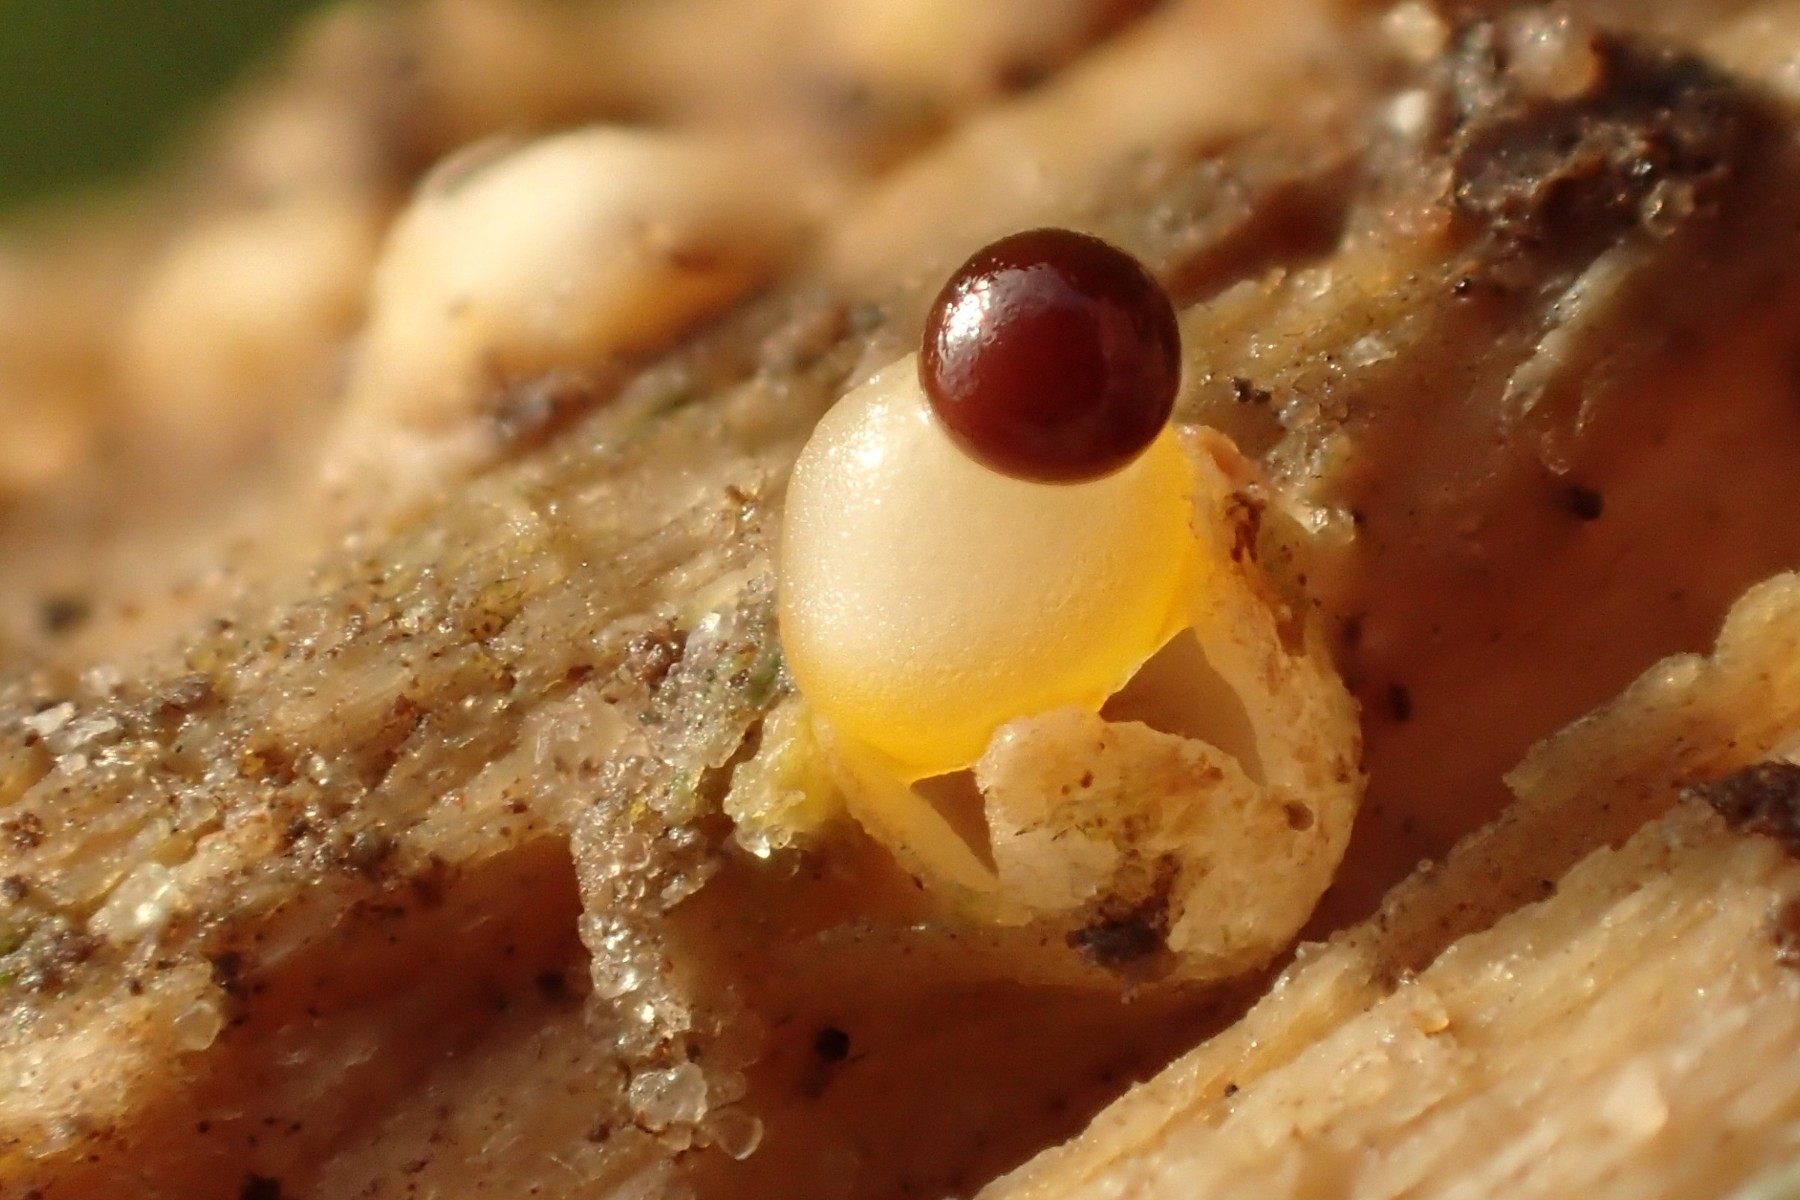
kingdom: Fungi
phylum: Basidiomycota
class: Agaricomycetes
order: Geastrales
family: Geastraceae
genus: Sphaerobolus
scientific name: Sphaerobolus stellatus
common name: bombekaster
